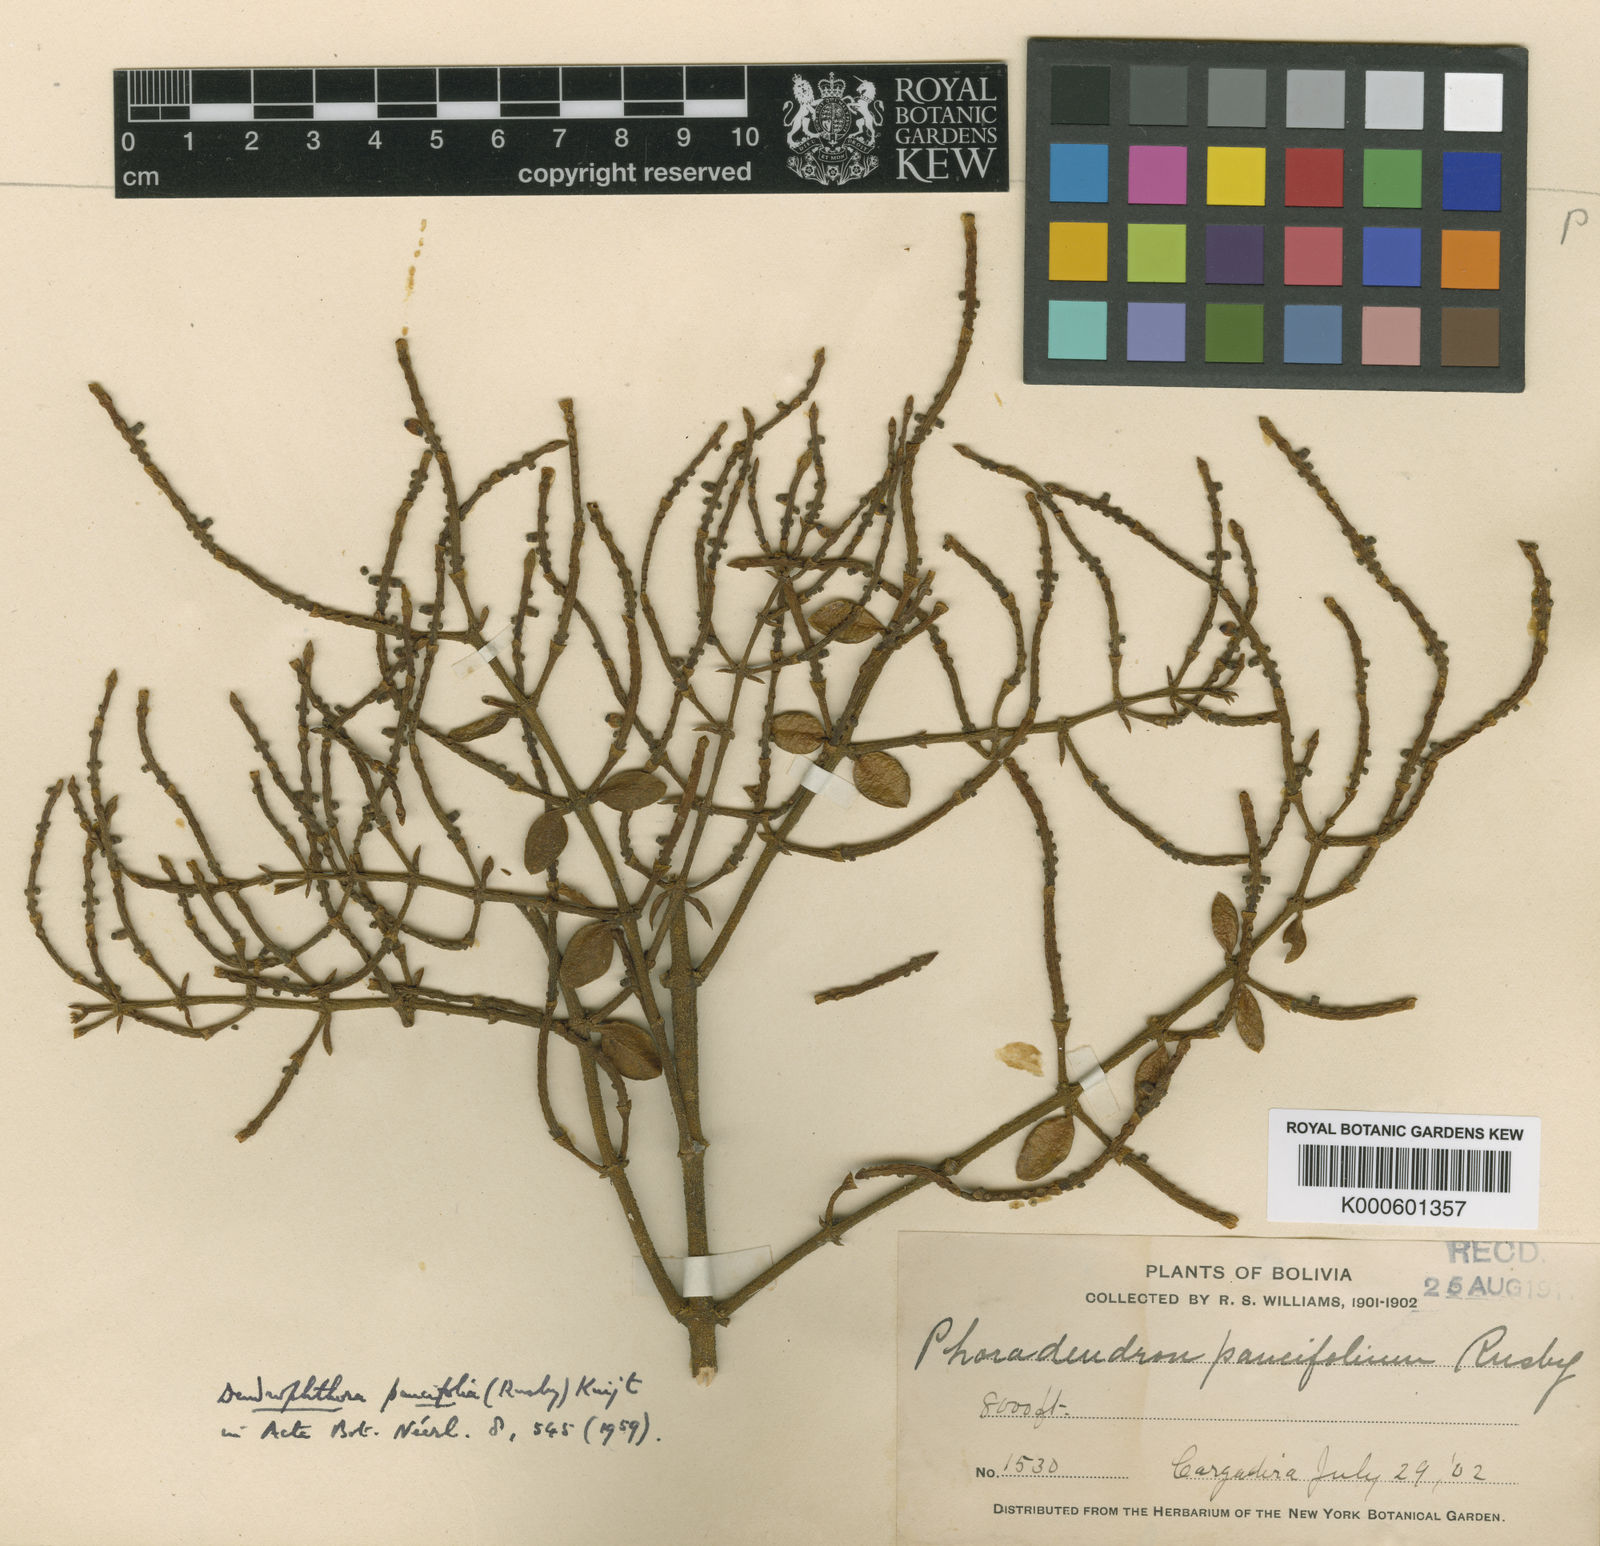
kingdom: Plantae
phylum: Tracheophyta
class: Magnoliopsida
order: Santalales
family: Viscaceae
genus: Dendrophthora
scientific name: Dendrophthora paucifolia
